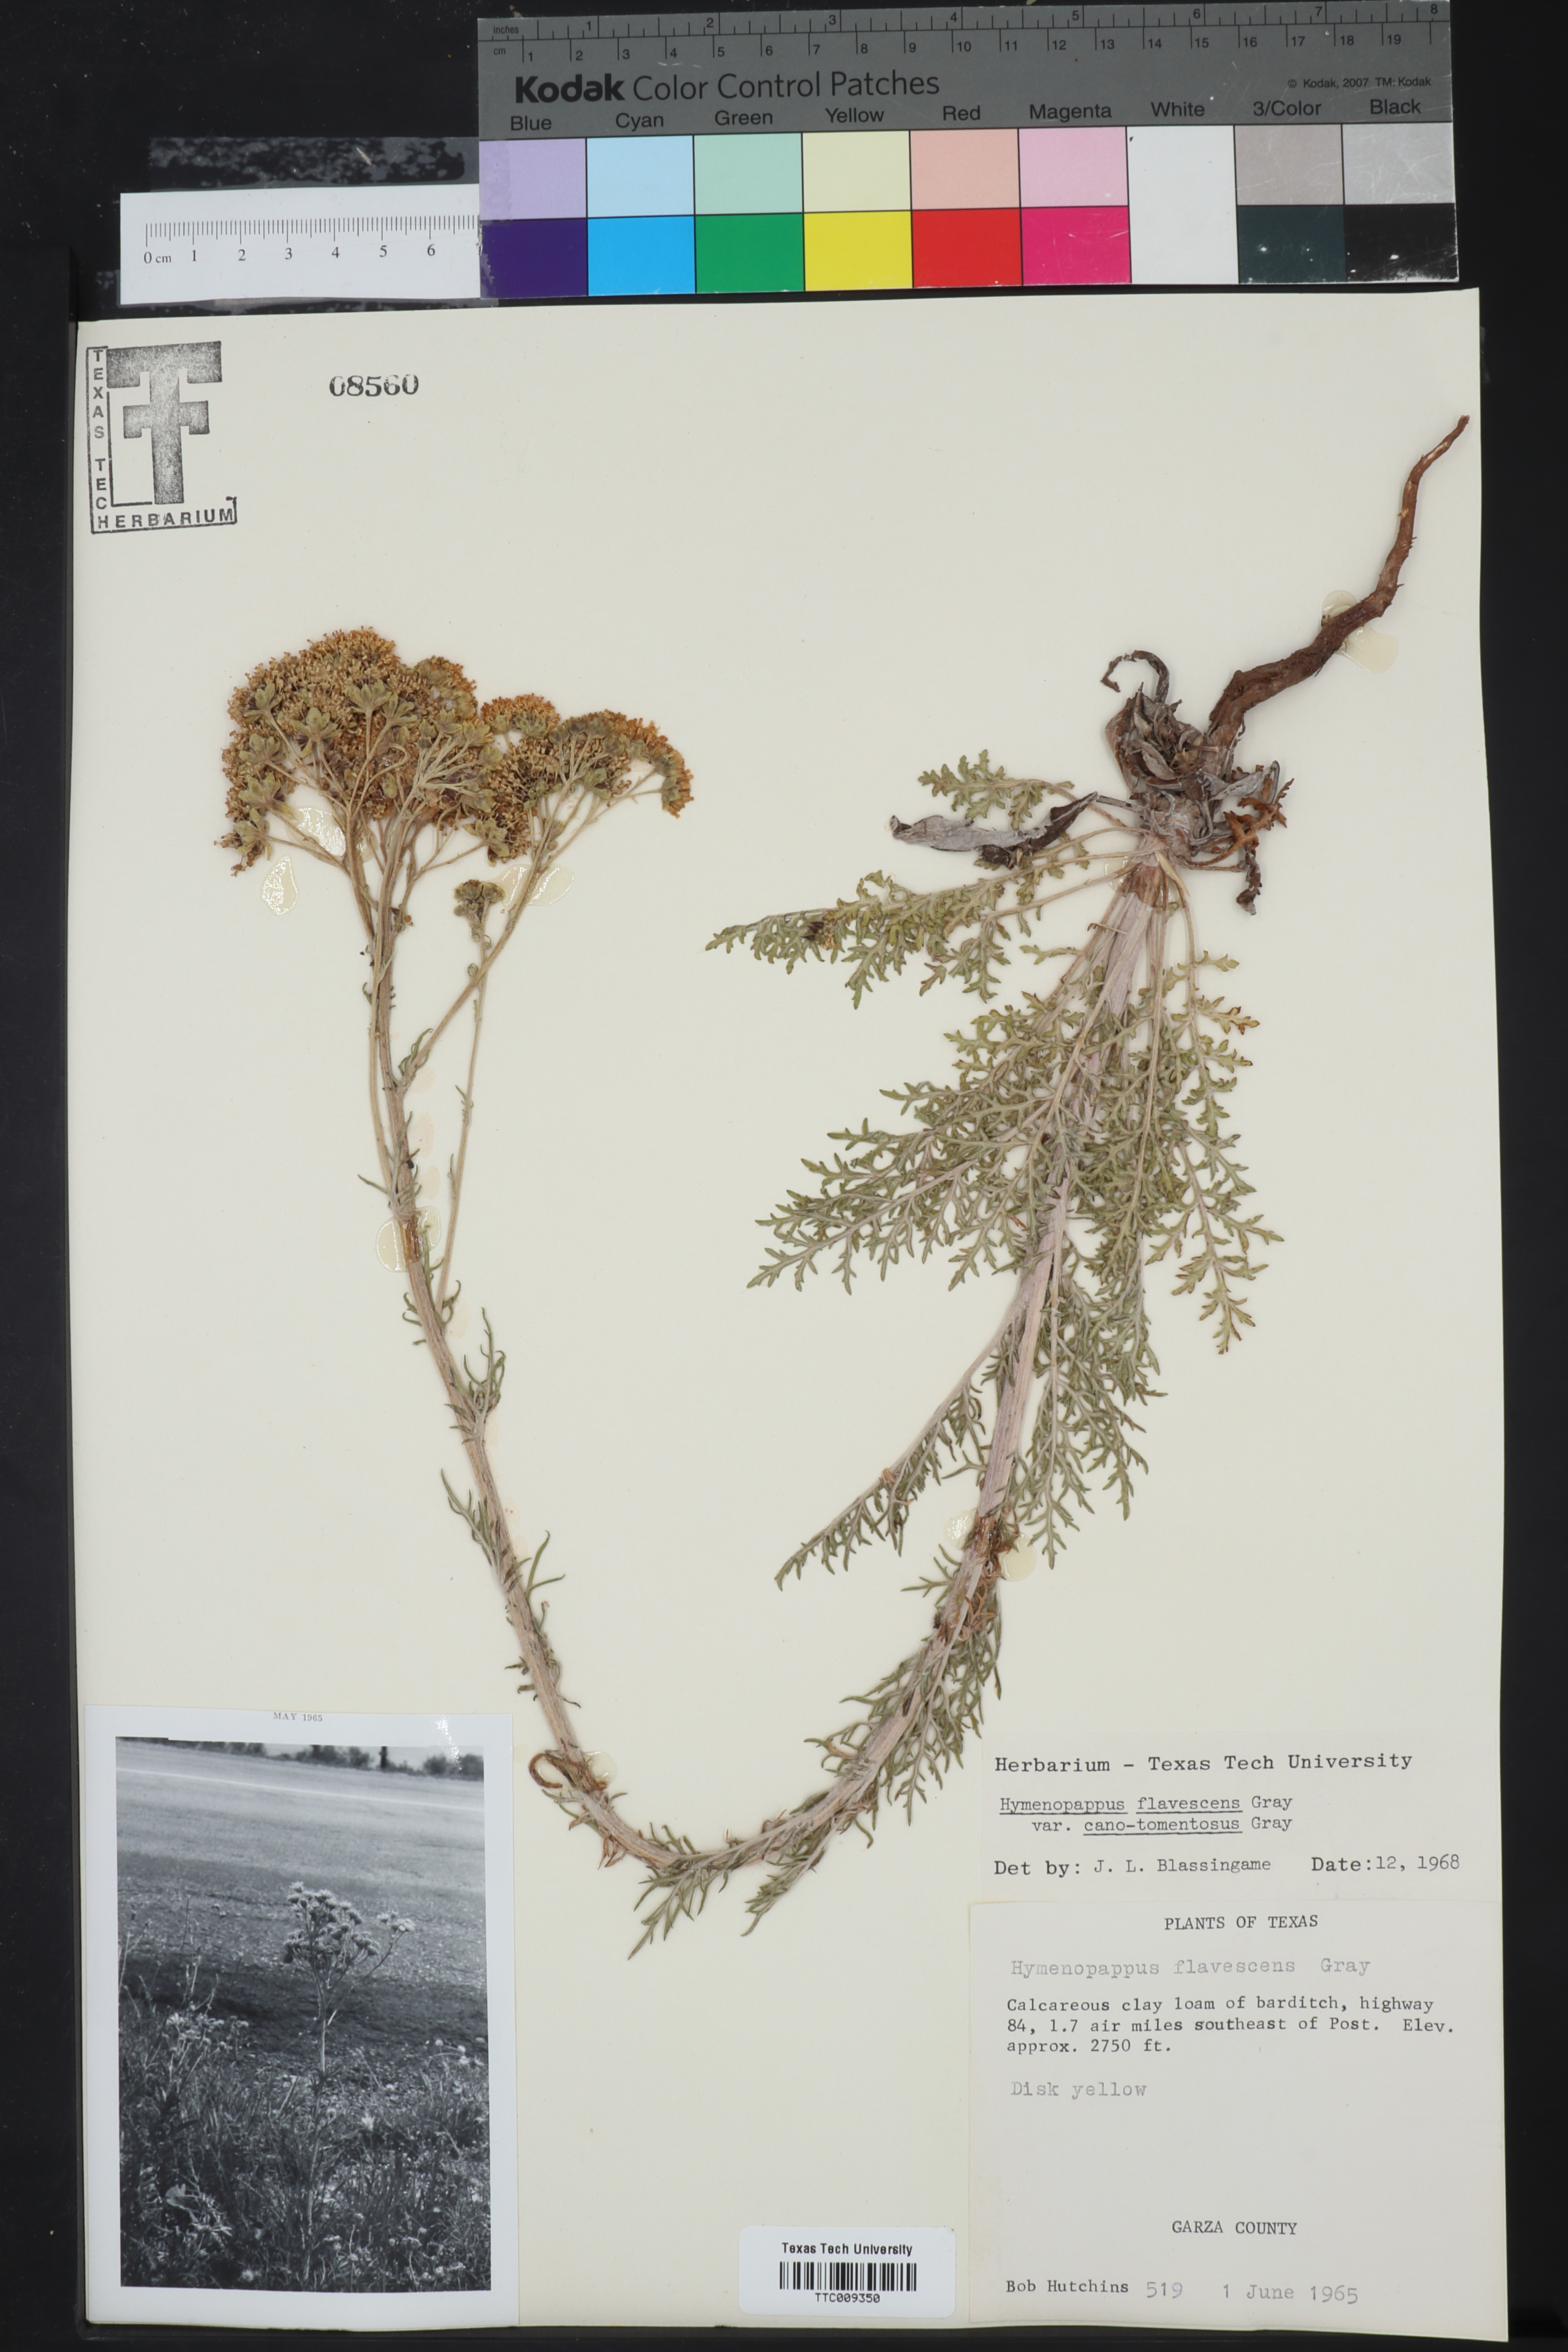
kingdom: Plantae
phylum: Tracheophyta
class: Magnoliopsida
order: Asterales
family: Asteraceae
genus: Hymenopappus
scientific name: Hymenopappus flavescens
